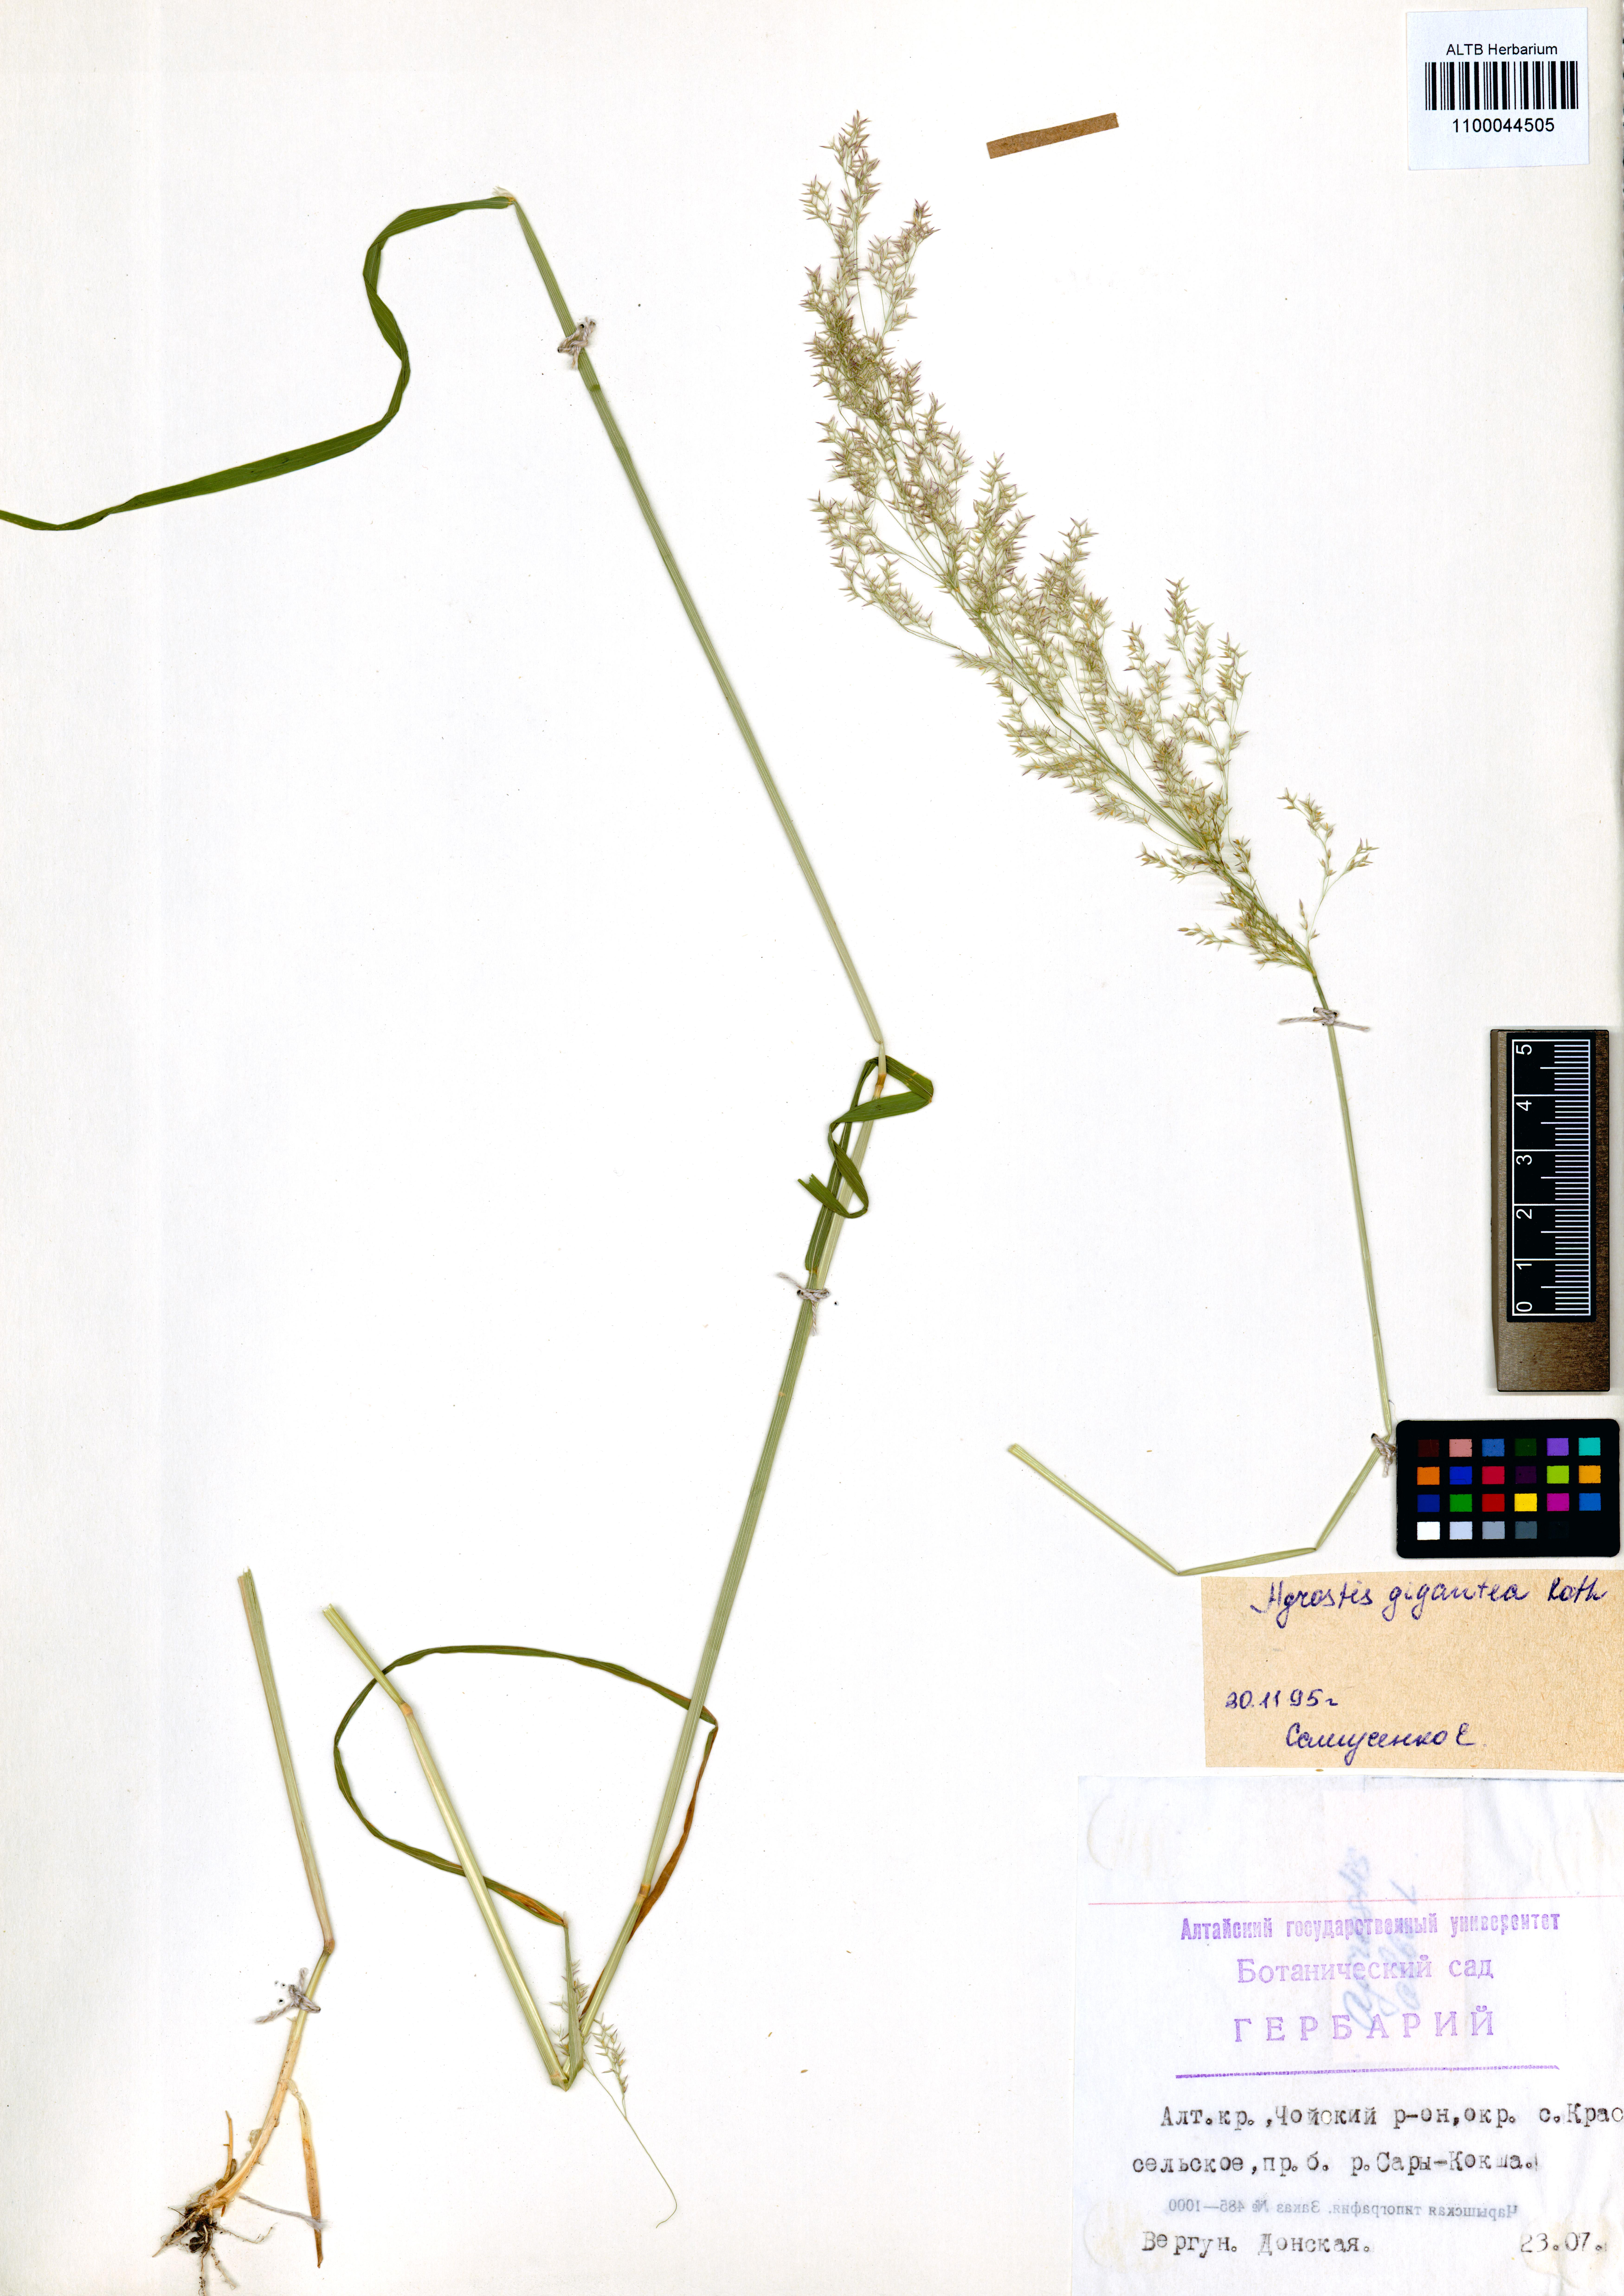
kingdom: Plantae
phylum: Tracheophyta
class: Liliopsida
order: Poales
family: Poaceae
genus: Agrostis
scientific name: Agrostis gigantea
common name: Black bent
